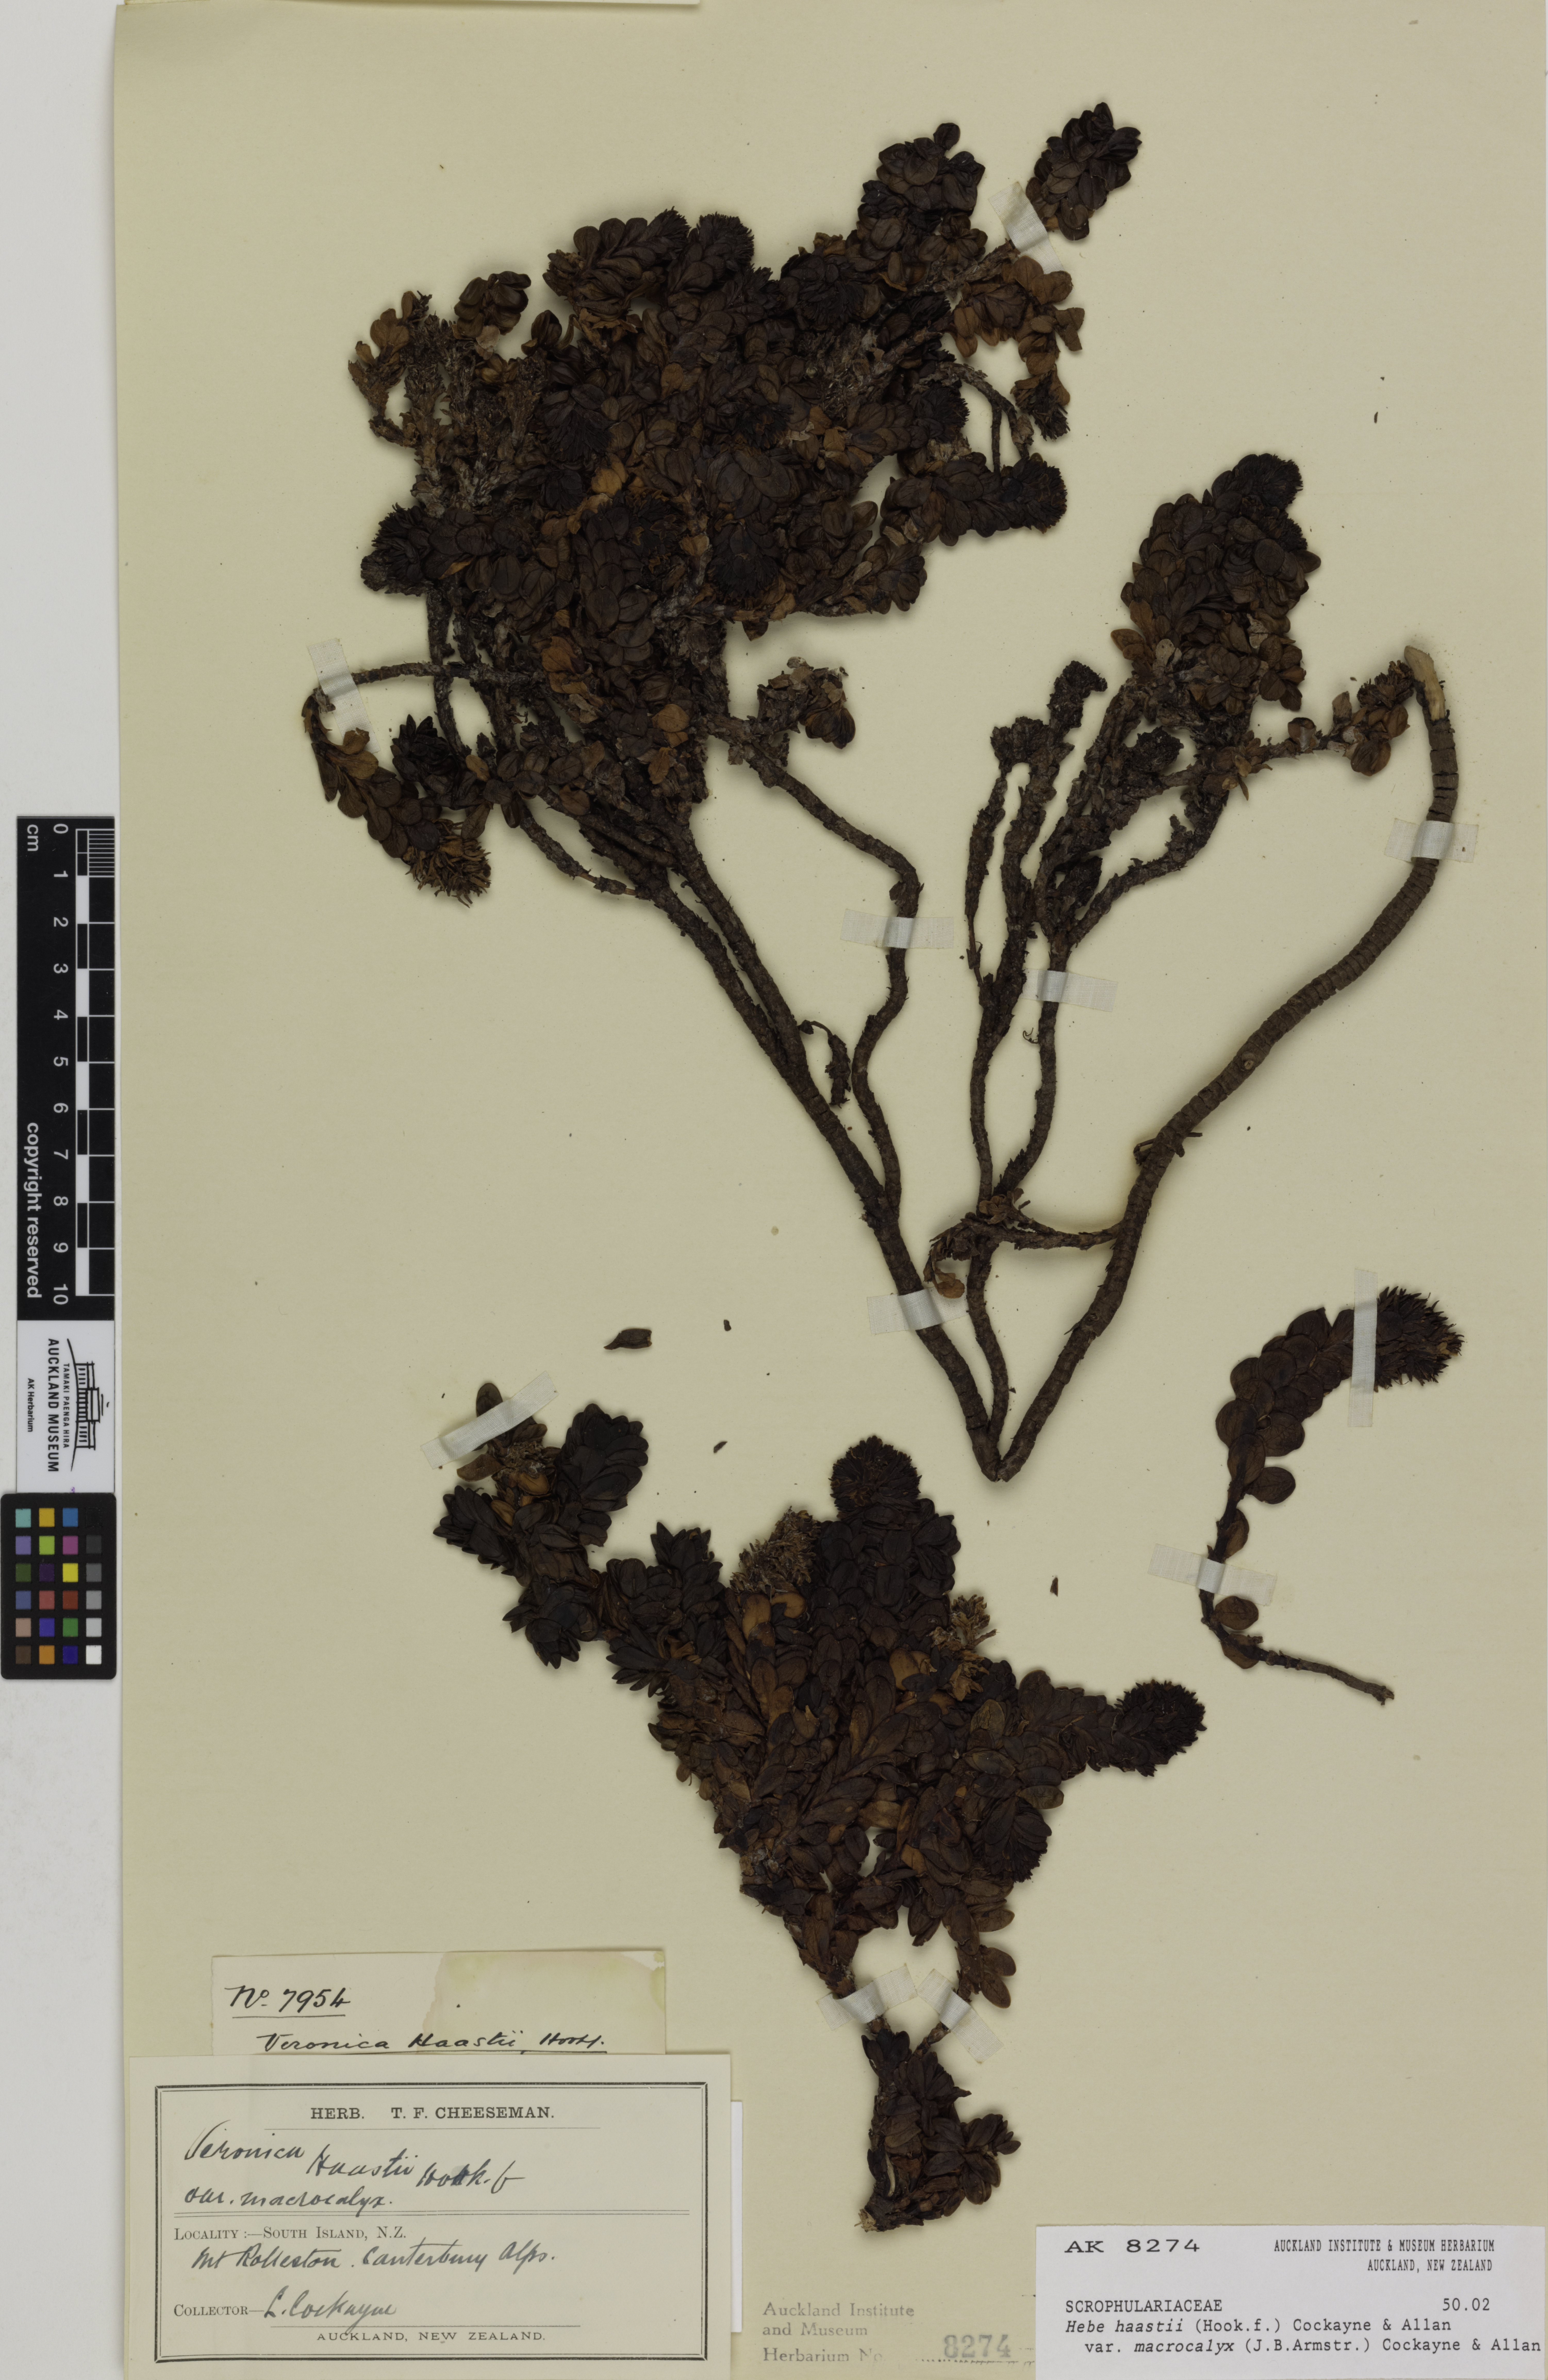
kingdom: Plantae
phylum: Tracheophyta
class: Magnoliopsida
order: Lamiales
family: Plantaginaceae
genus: Veronica
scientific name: Veronica haastii
